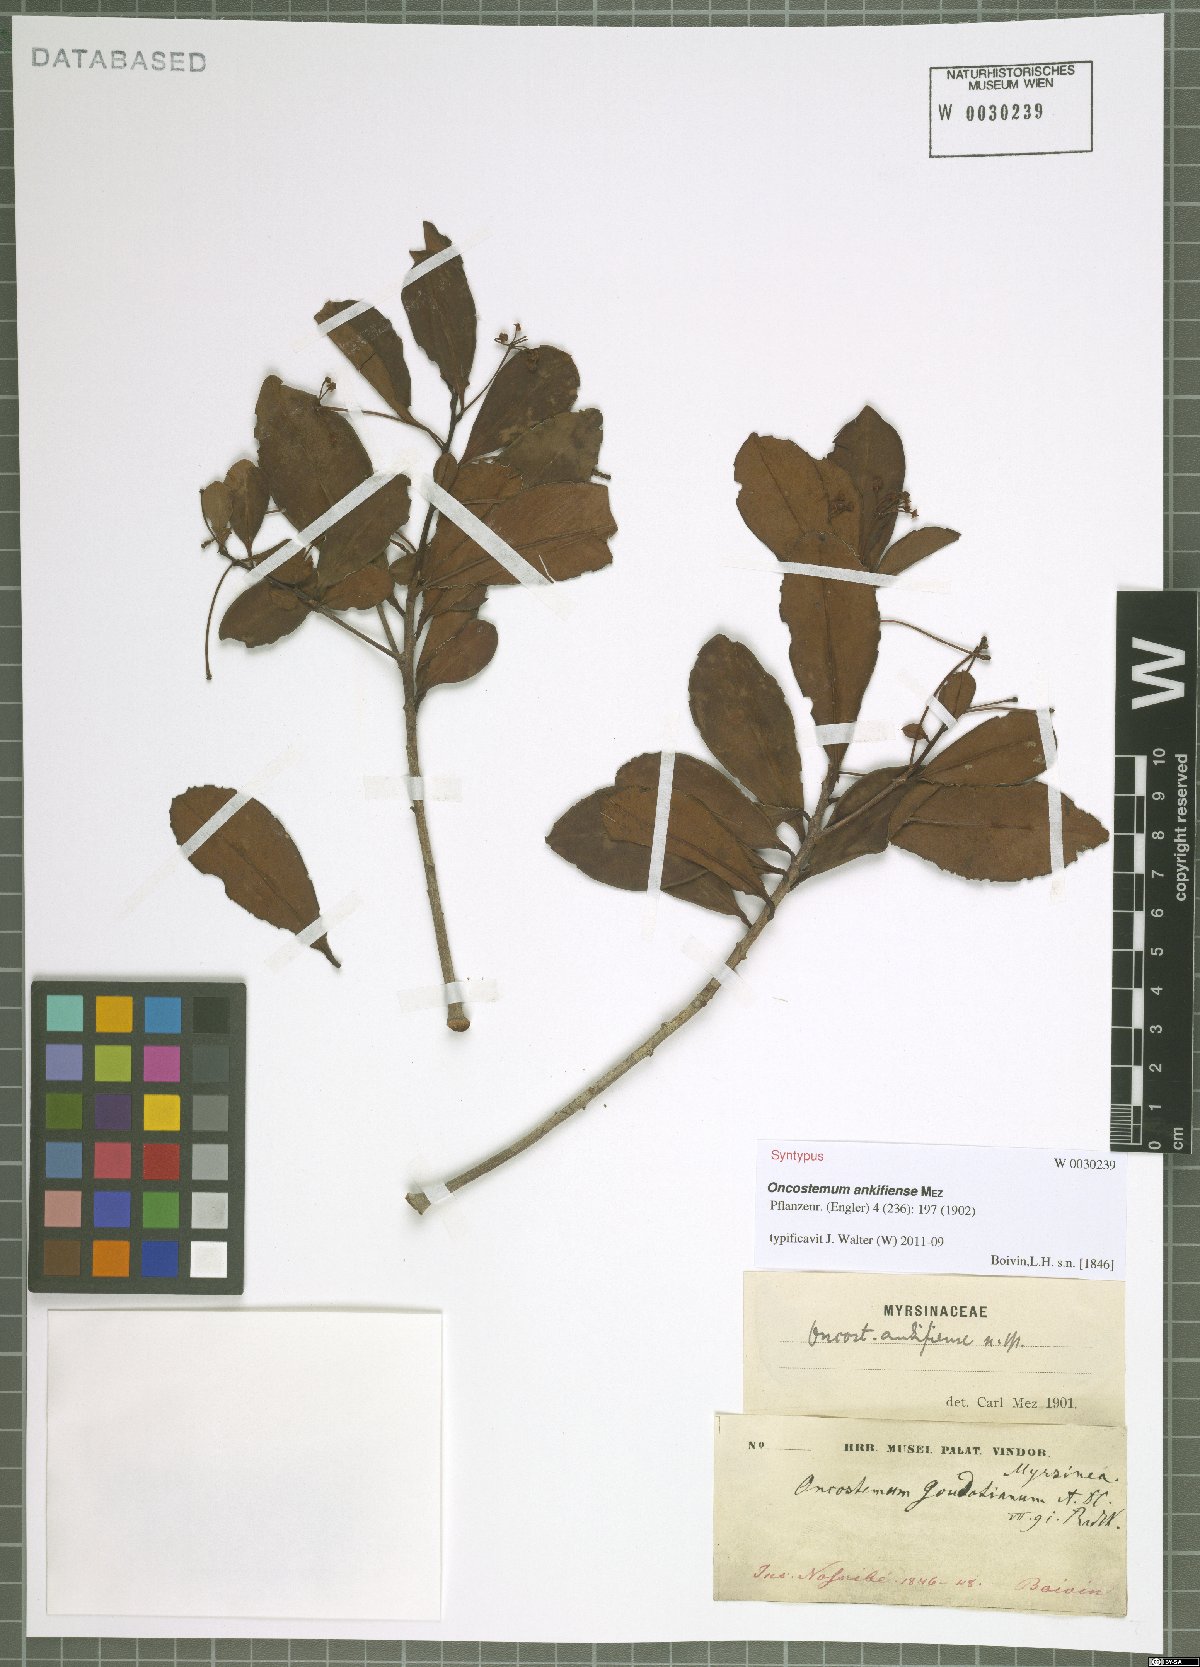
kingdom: Plantae
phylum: Tracheophyta
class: Magnoliopsida
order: Ericales
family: Primulaceae
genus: Oncostemum
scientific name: Oncostemum ankifiense
